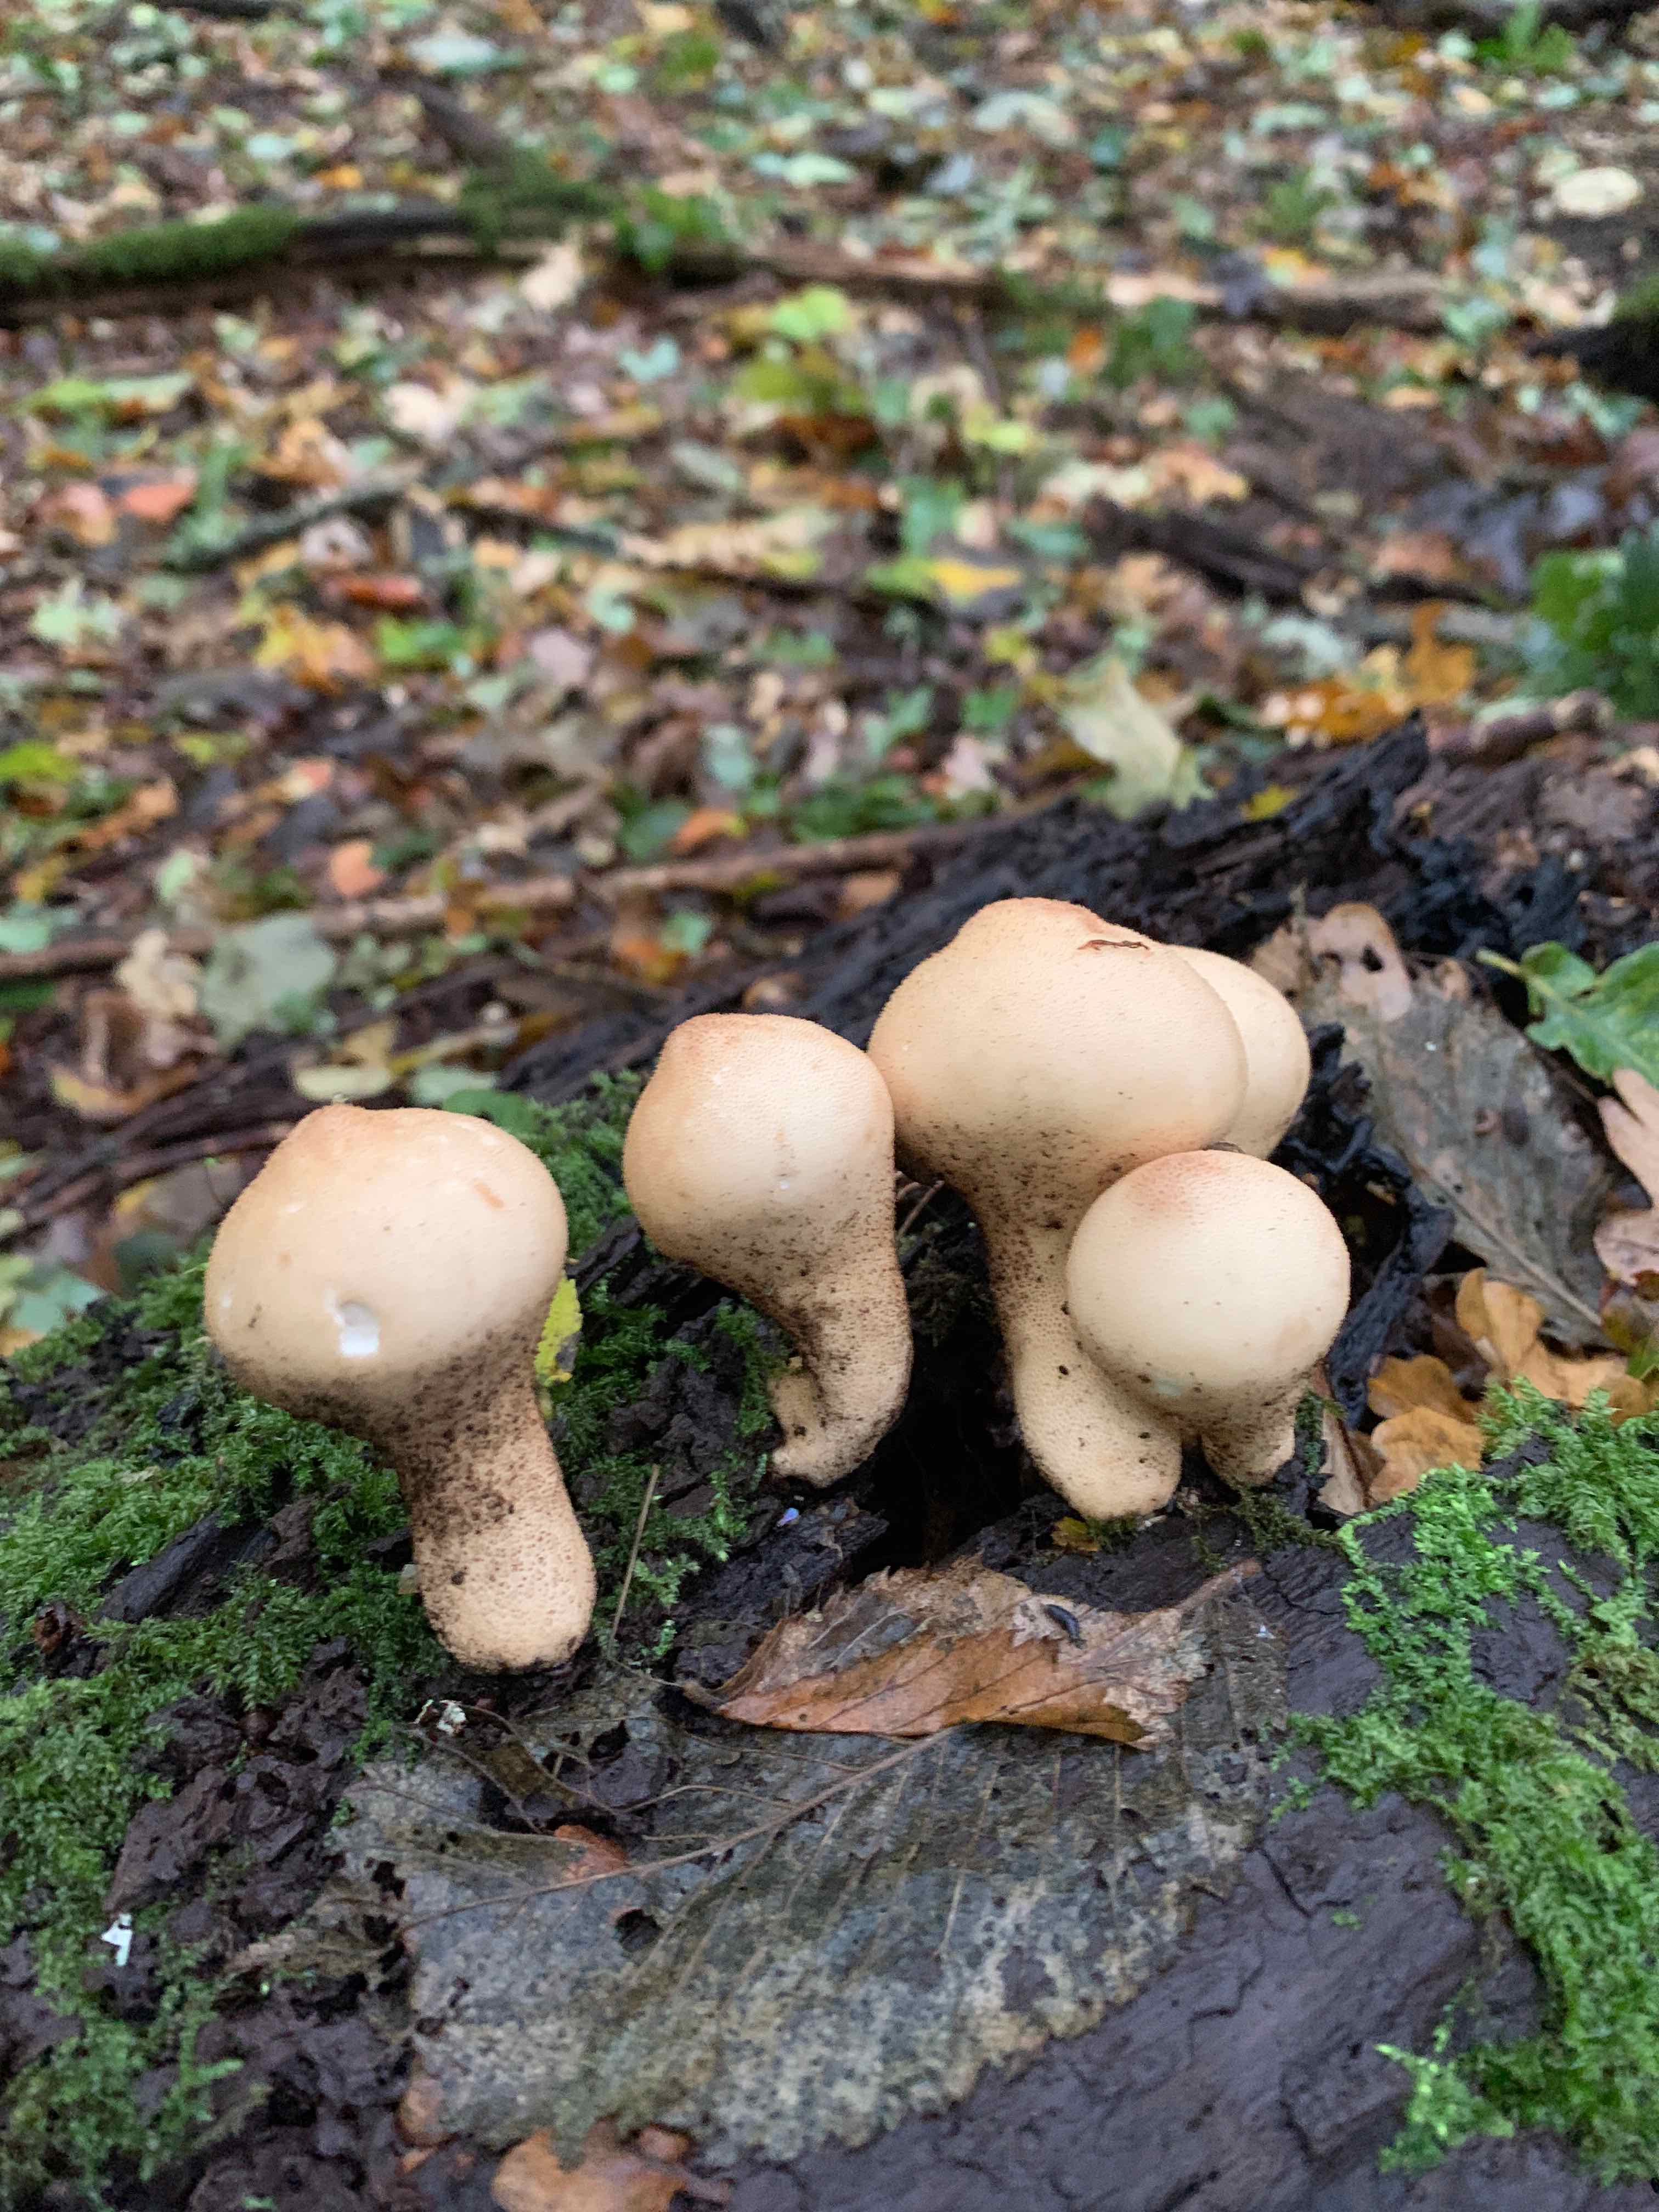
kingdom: Fungi
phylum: Basidiomycota
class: Agaricomycetes
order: Agaricales
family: Lycoperdaceae
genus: Apioperdon
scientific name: Apioperdon pyriforme
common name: pære-støvbold
